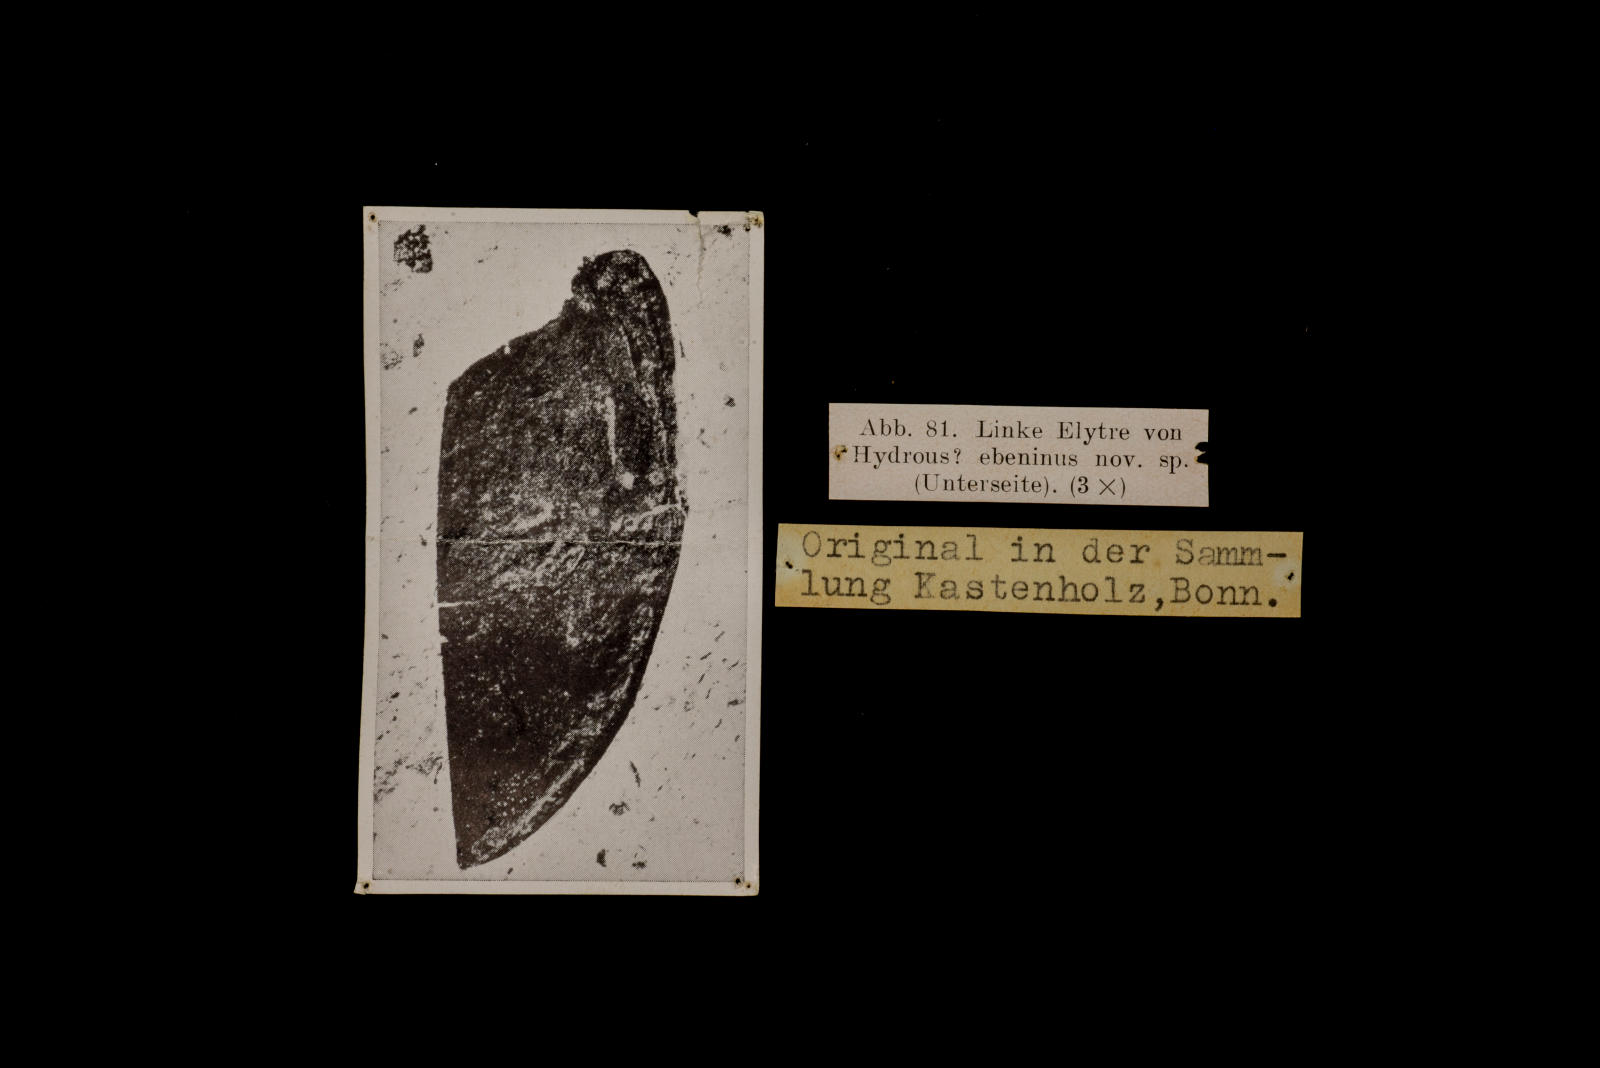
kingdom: Animalia
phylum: Arthropoda
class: Insecta
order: Coleoptera
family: Hydrophilidae
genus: Hydrous
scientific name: Hydrous
